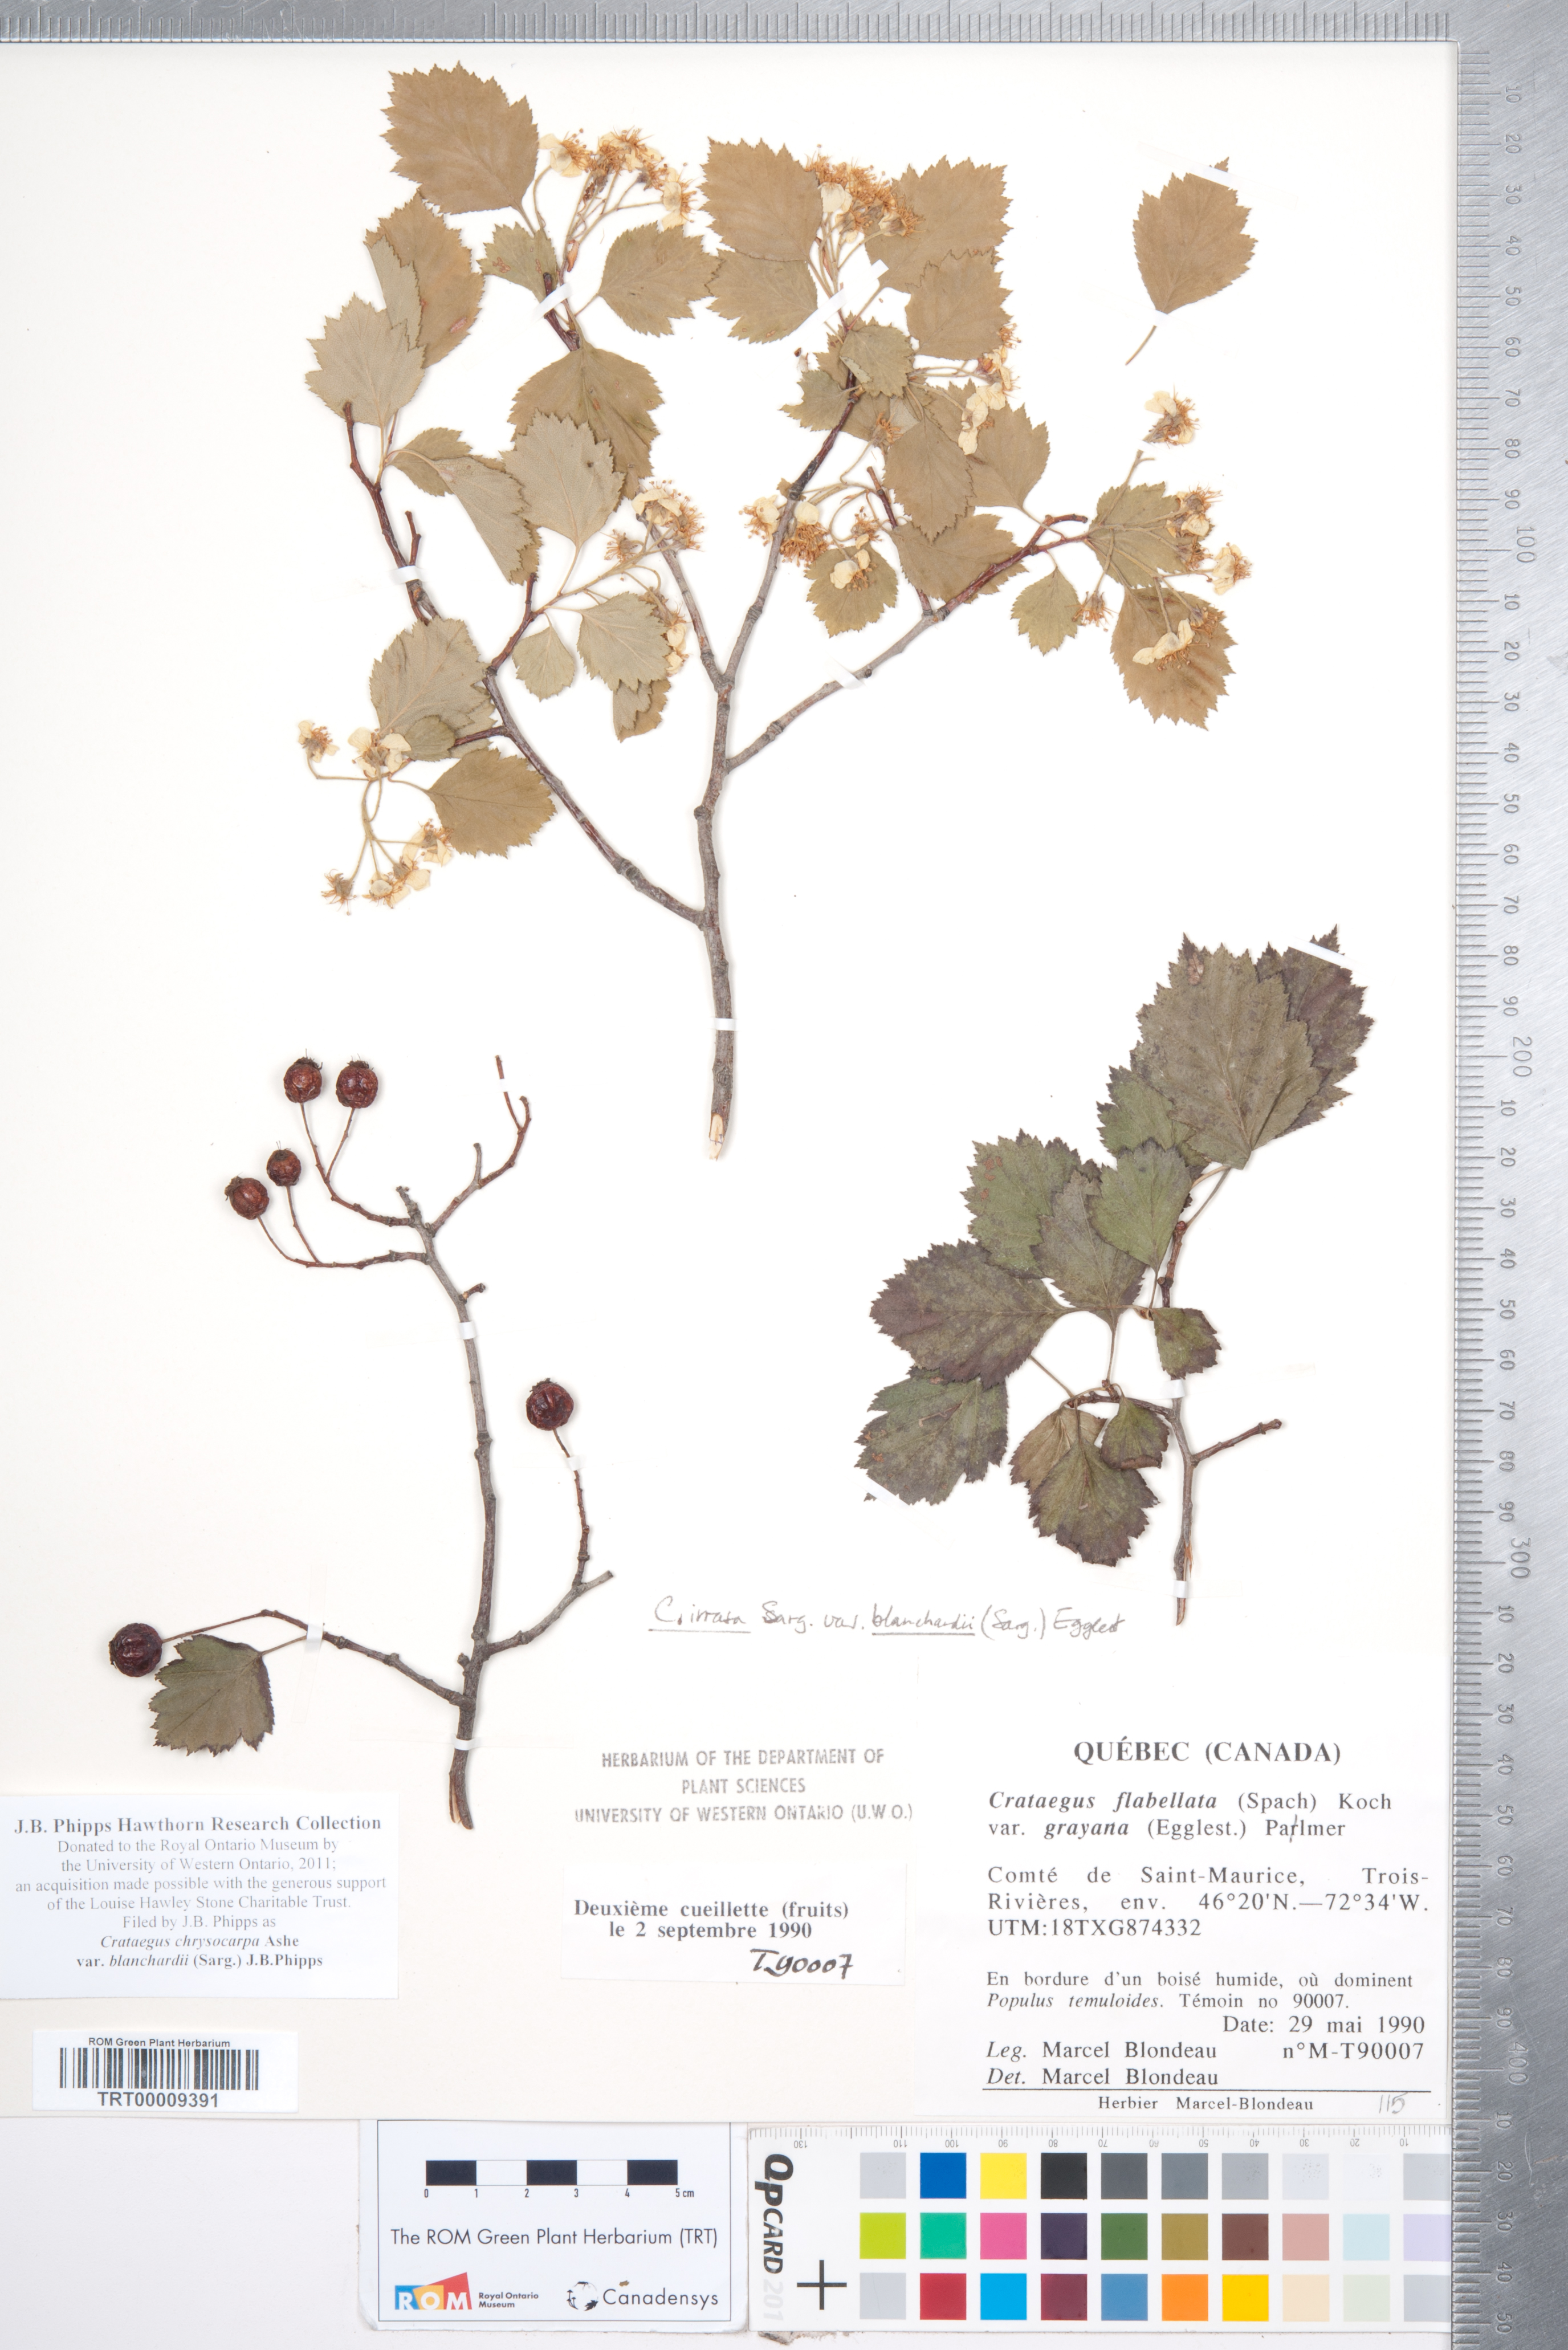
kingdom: Plantae
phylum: Tracheophyta
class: Magnoliopsida
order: Rosales
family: Rosaceae
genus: Crataegus
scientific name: Crataegus chrysocarpa
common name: Fire-berry hawthorn
